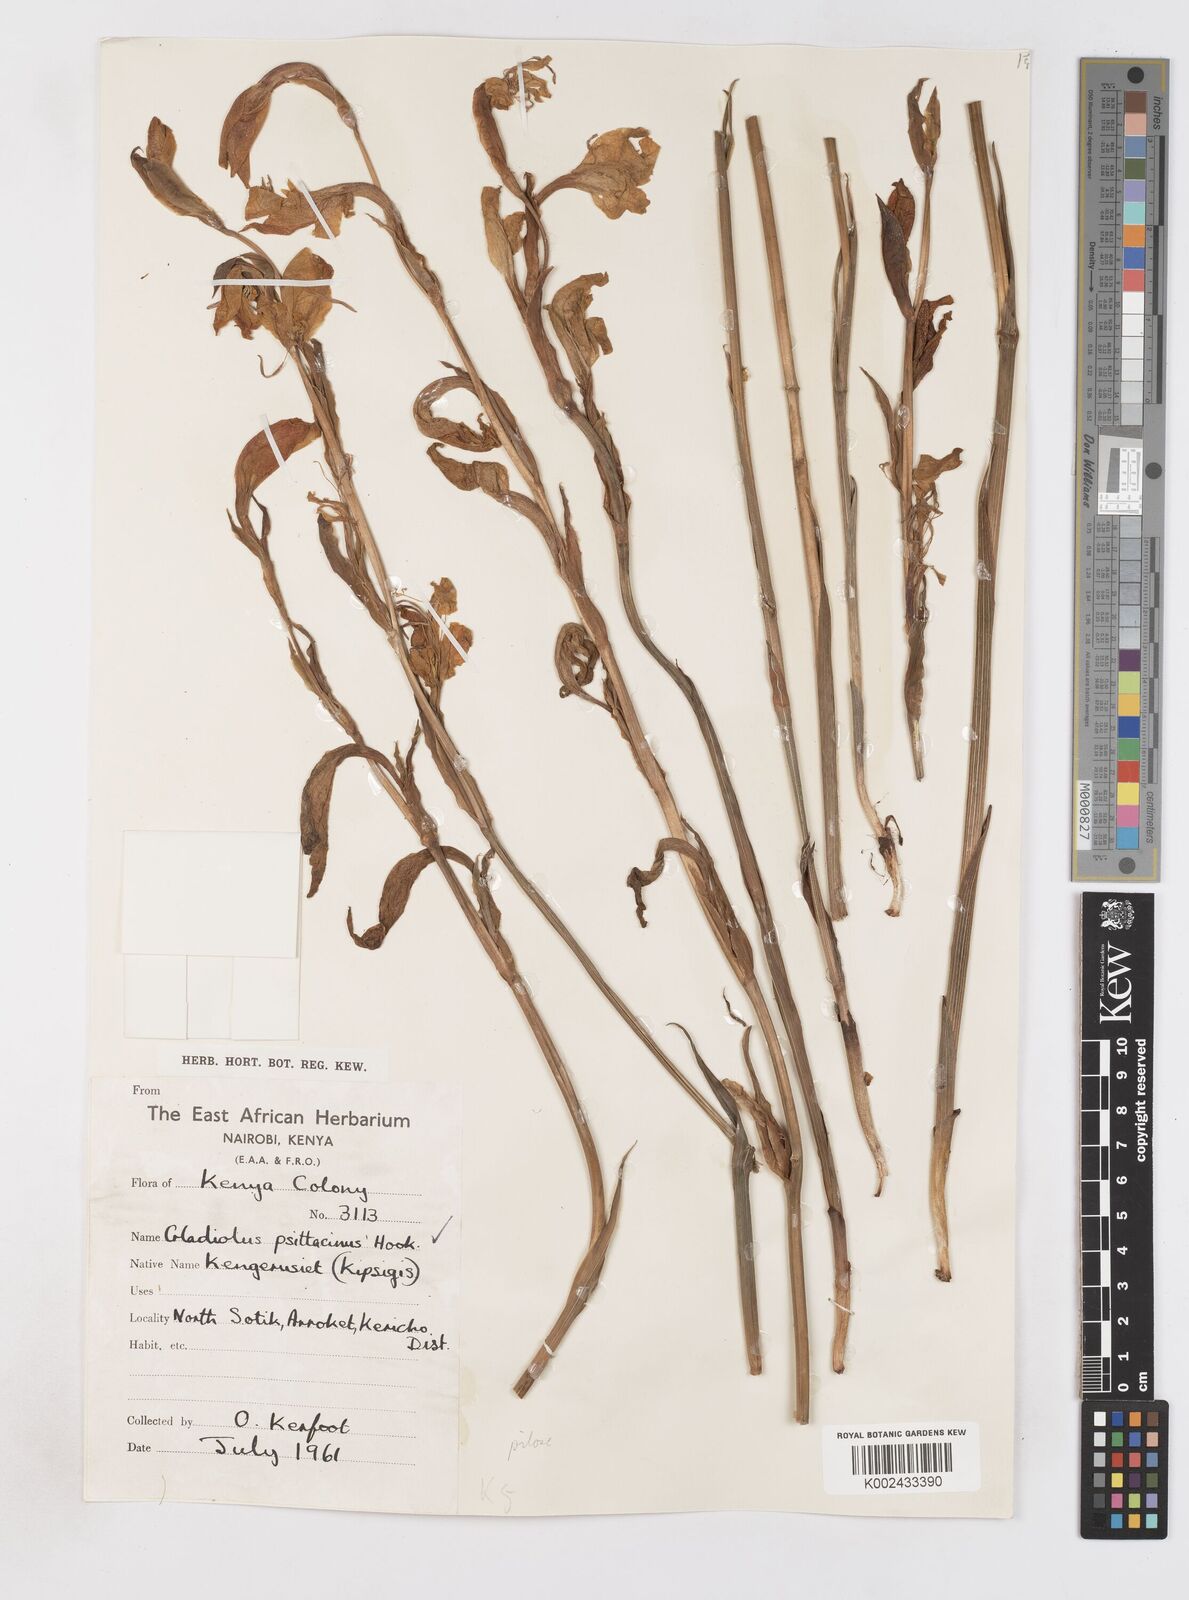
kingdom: Plantae
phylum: Tracheophyta
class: Liliopsida
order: Asparagales
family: Iridaceae
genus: Gladiolus
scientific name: Gladiolus dalenii
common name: Cornflag
